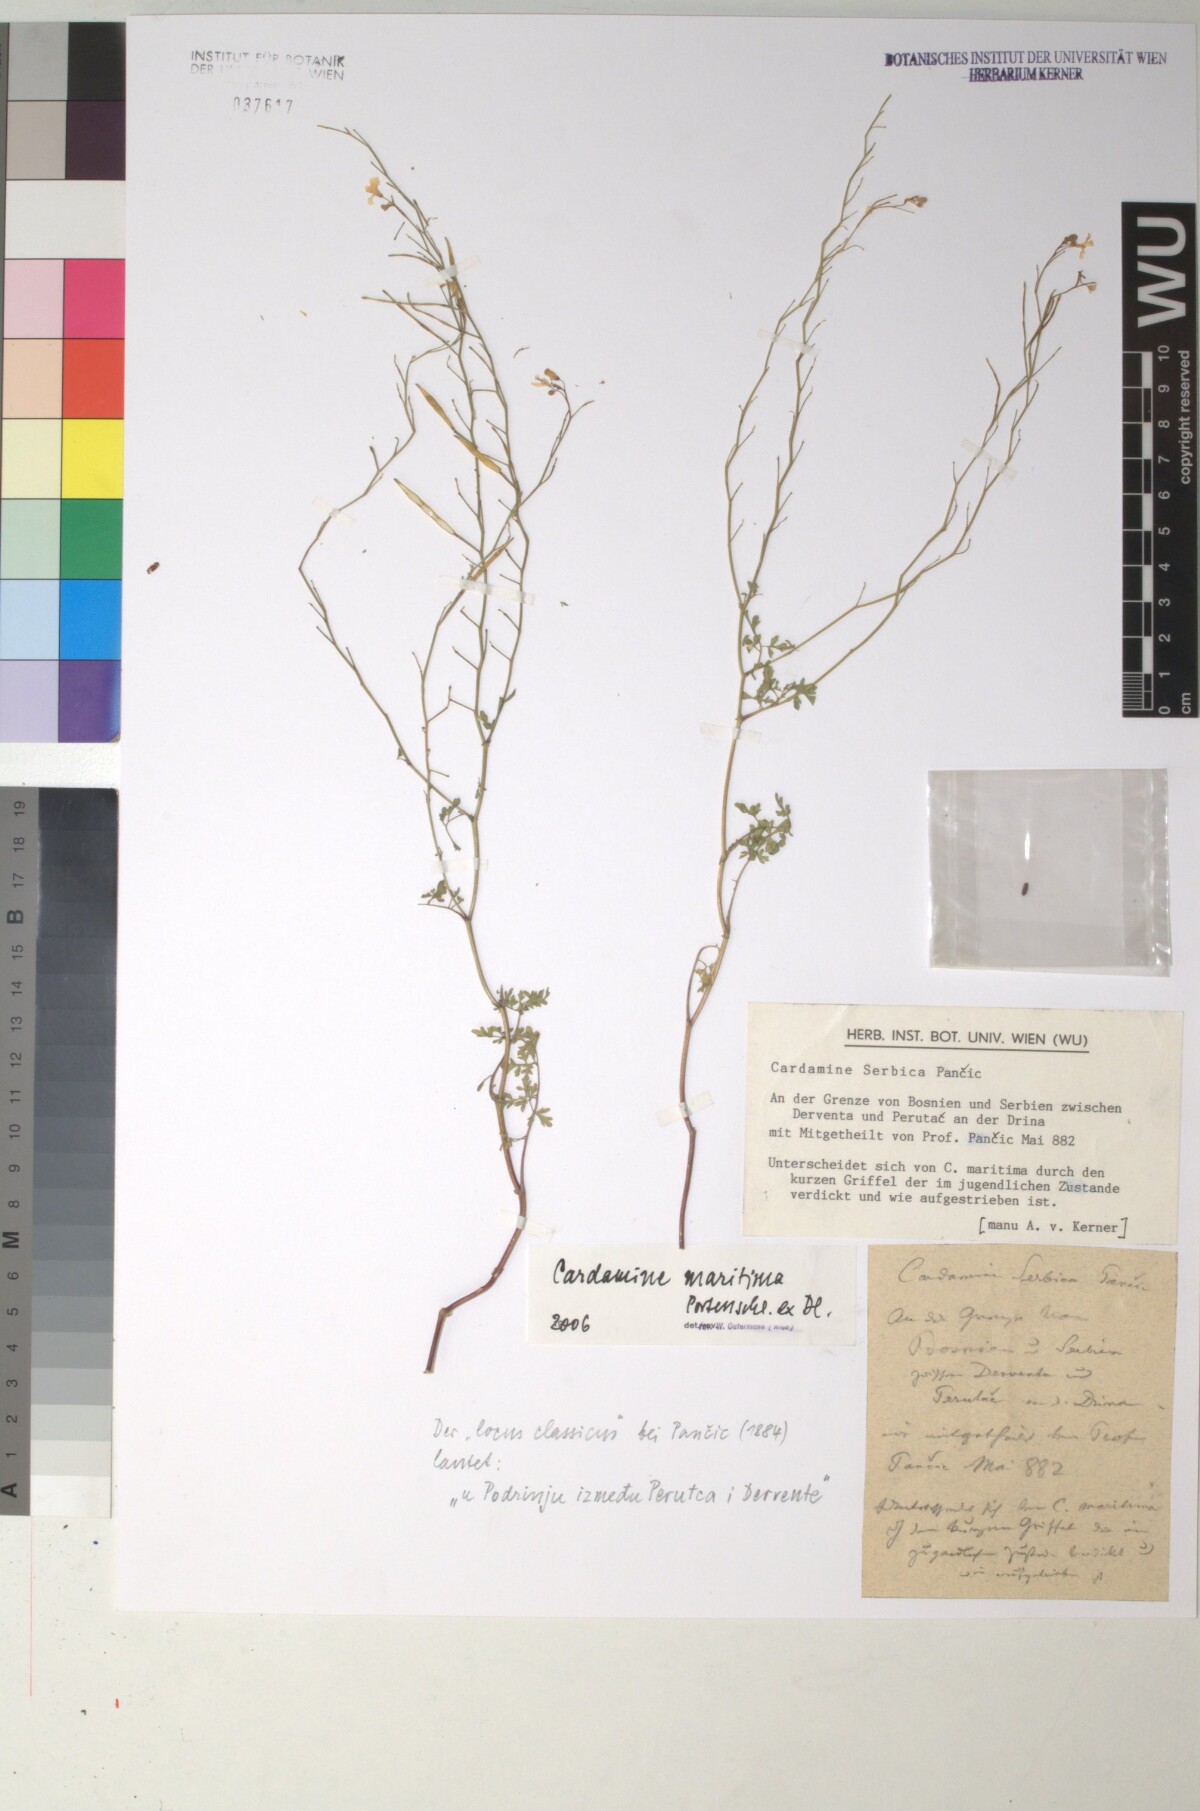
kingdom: Plantae
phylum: Tracheophyta
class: Magnoliopsida
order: Brassicales
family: Brassicaceae
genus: Cardamine
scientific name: Cardamine maritima
